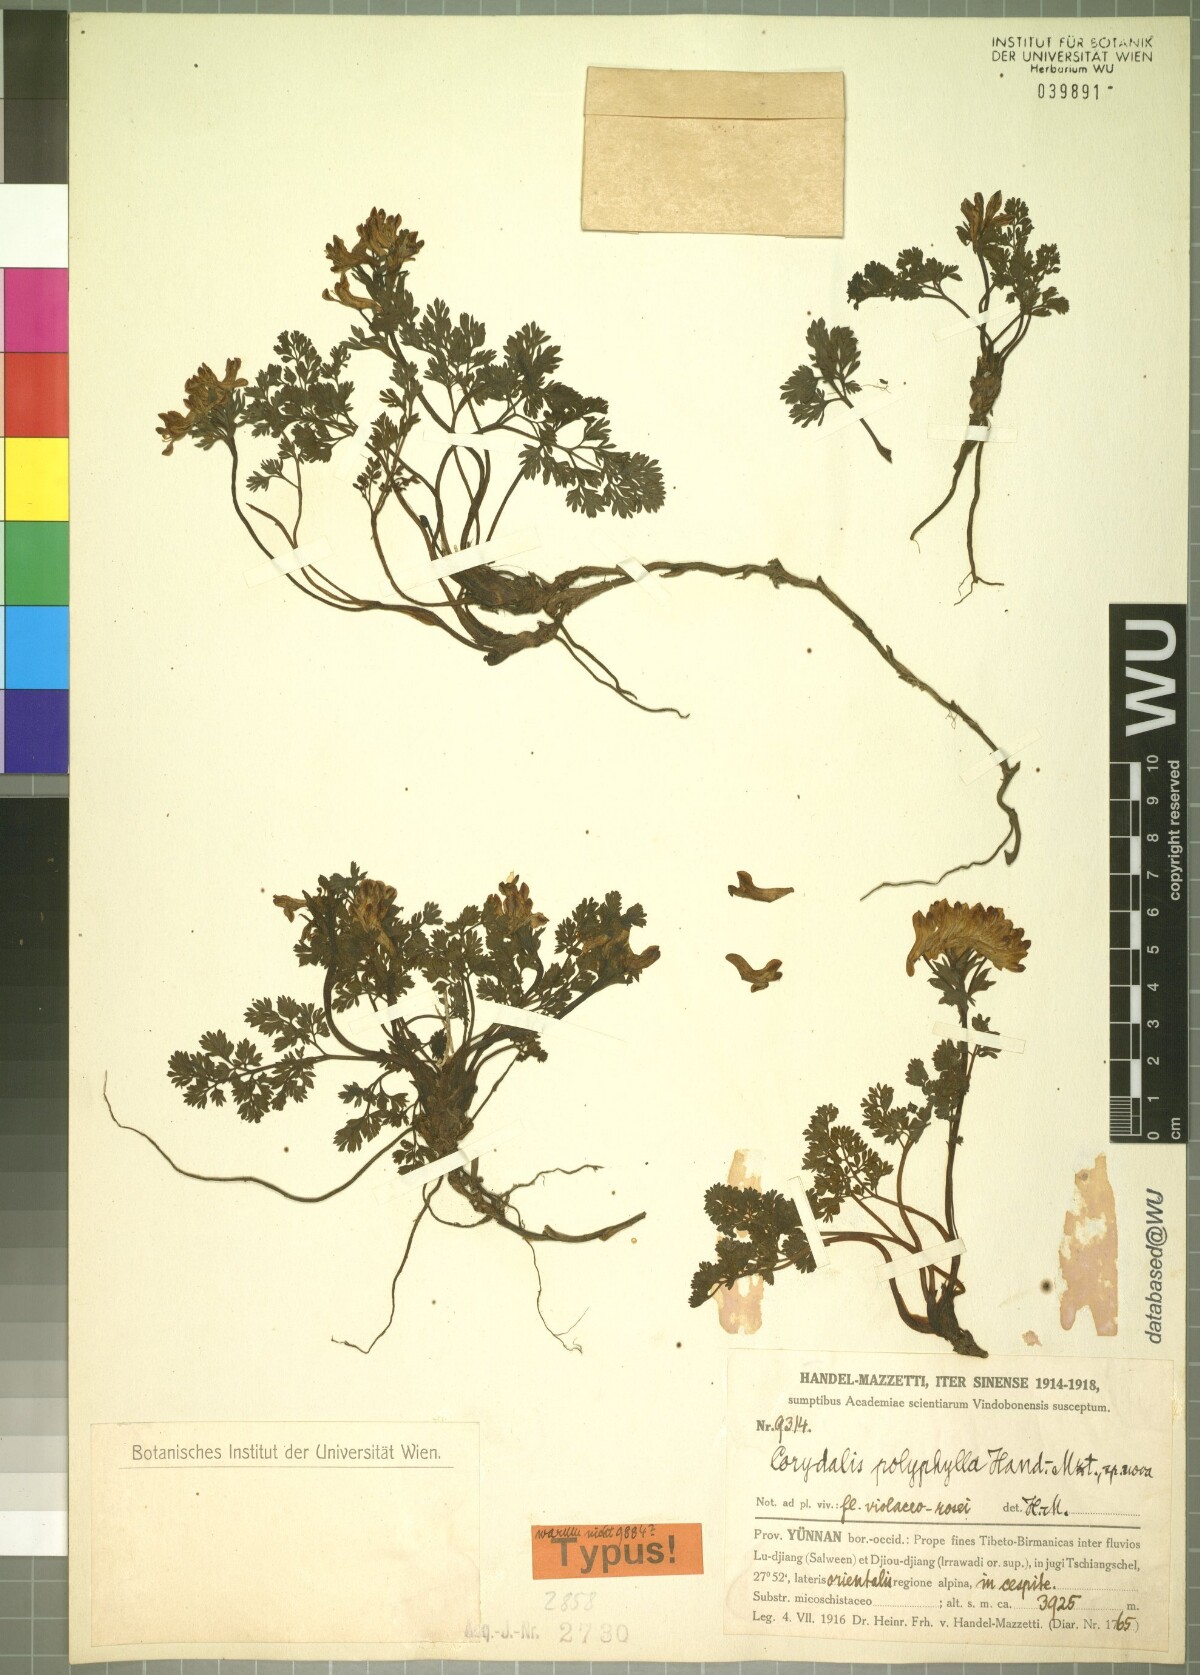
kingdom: Plantae
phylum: Tracheophyta
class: Magnoliopsida
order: Ranunculales
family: Papaveraceae
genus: Corydalis
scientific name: Corydalis polyphylla
